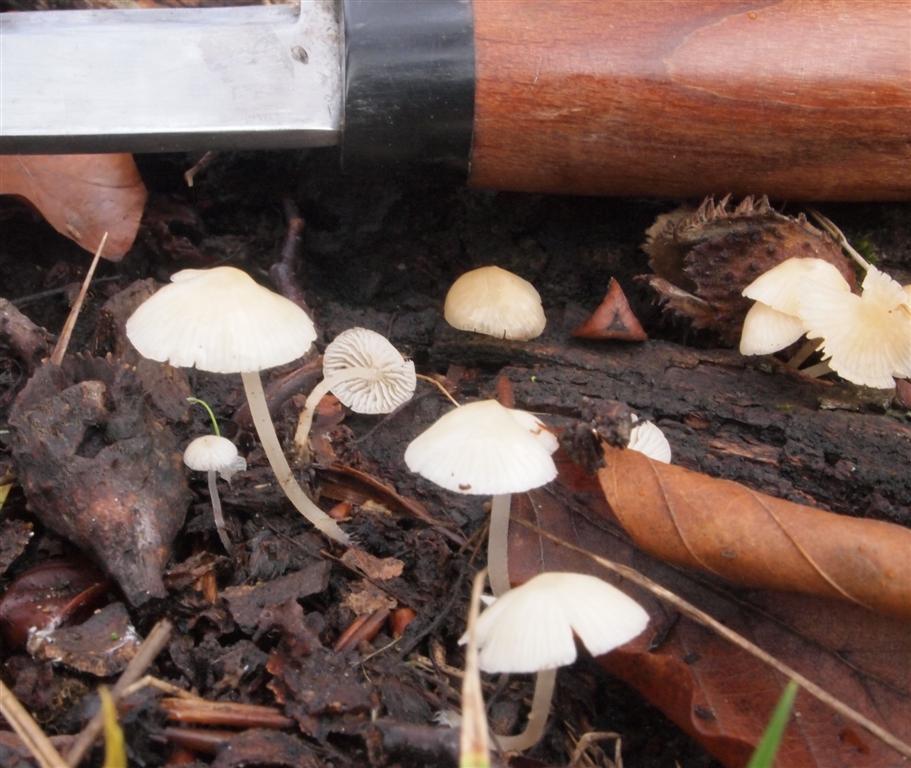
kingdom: Fungi
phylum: Basidiomycota
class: Agaricomycetes
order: Agaricales
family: Porotheleaceae
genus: Phloeomana
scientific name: Phloeomana minutula
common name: bleg huesvamp
